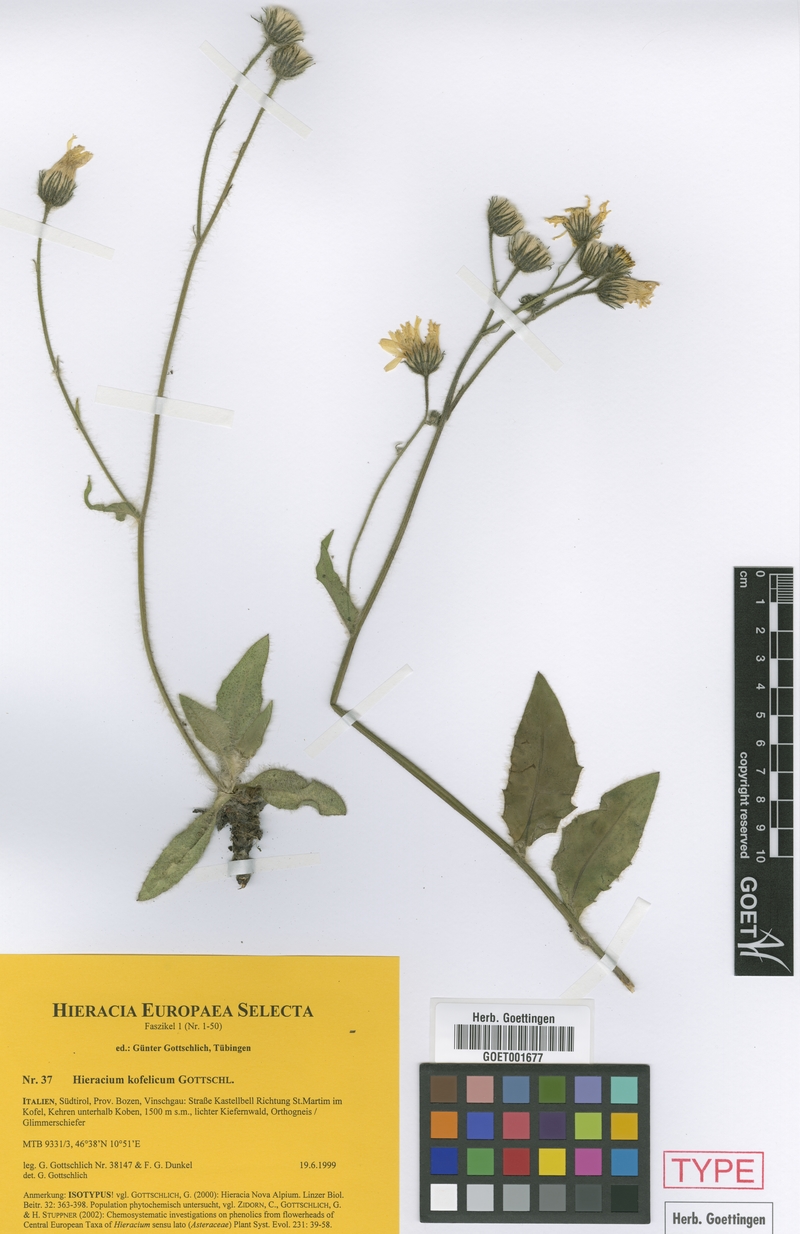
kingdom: Plantae
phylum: Tracheophyta
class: Magnoliopsida
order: Asterales
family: Asteraceae
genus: Hieracium
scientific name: Hieracium kofelicum
